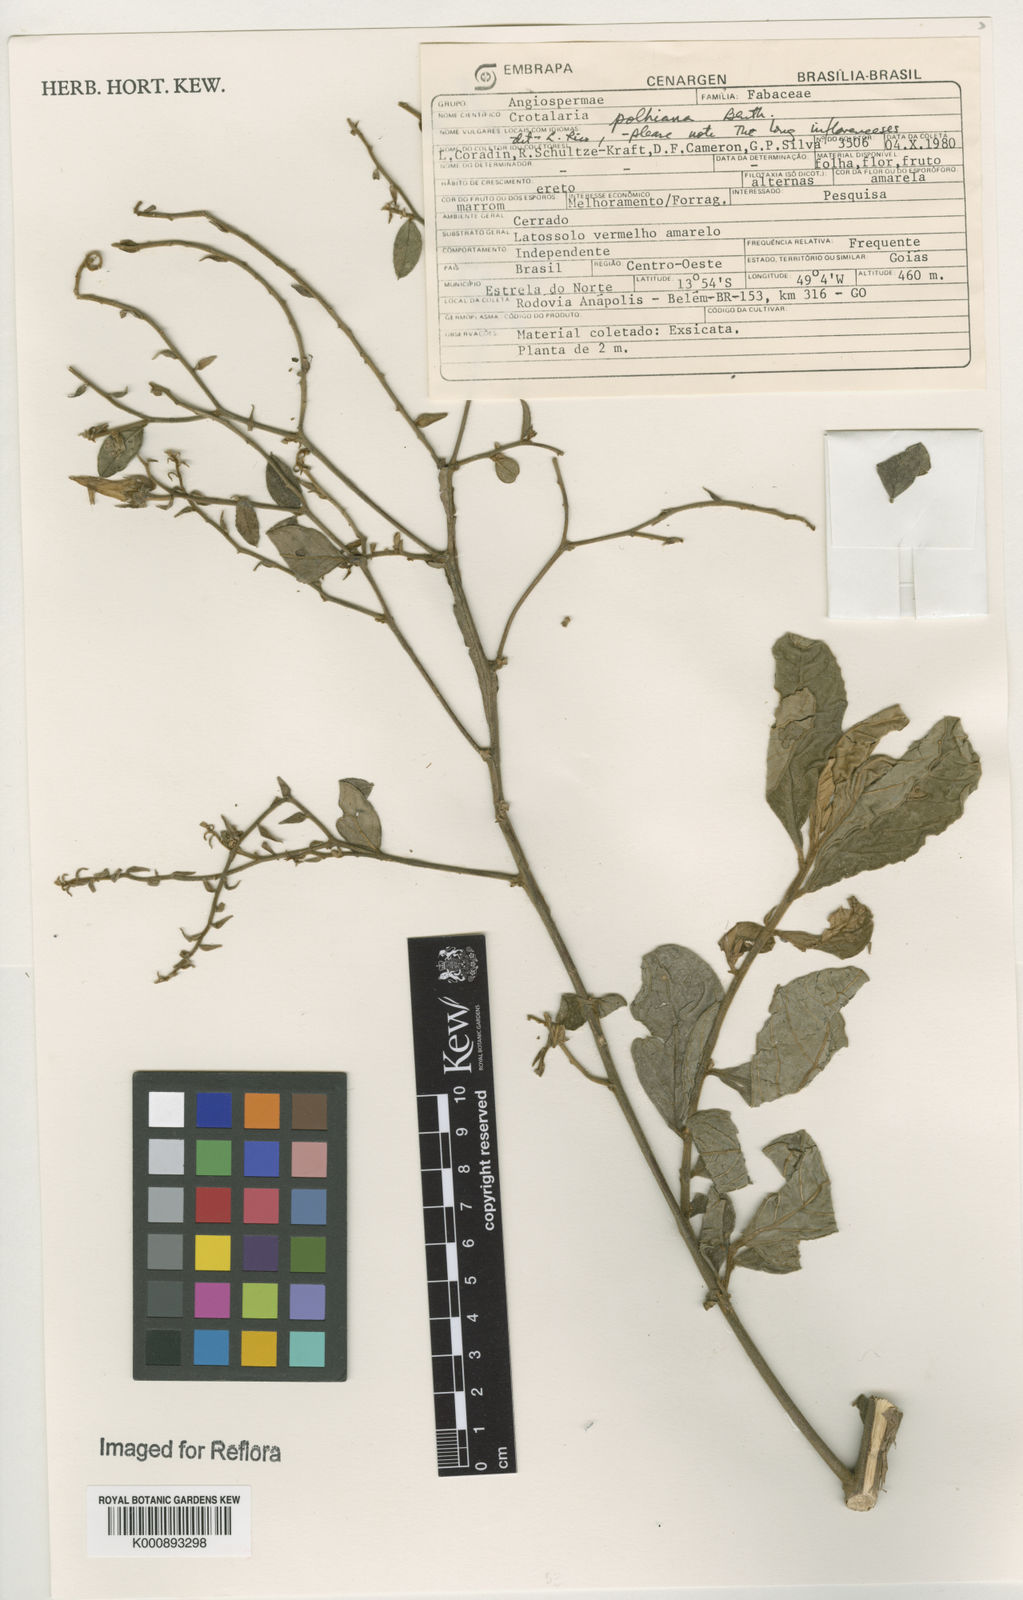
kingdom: Plantae
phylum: Tracheophyta
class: Magnoliopsida
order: Fabales
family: Fabaceae
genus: Crotalaria
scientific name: Crotalaria breviflora
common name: Short-flower crotalaria
